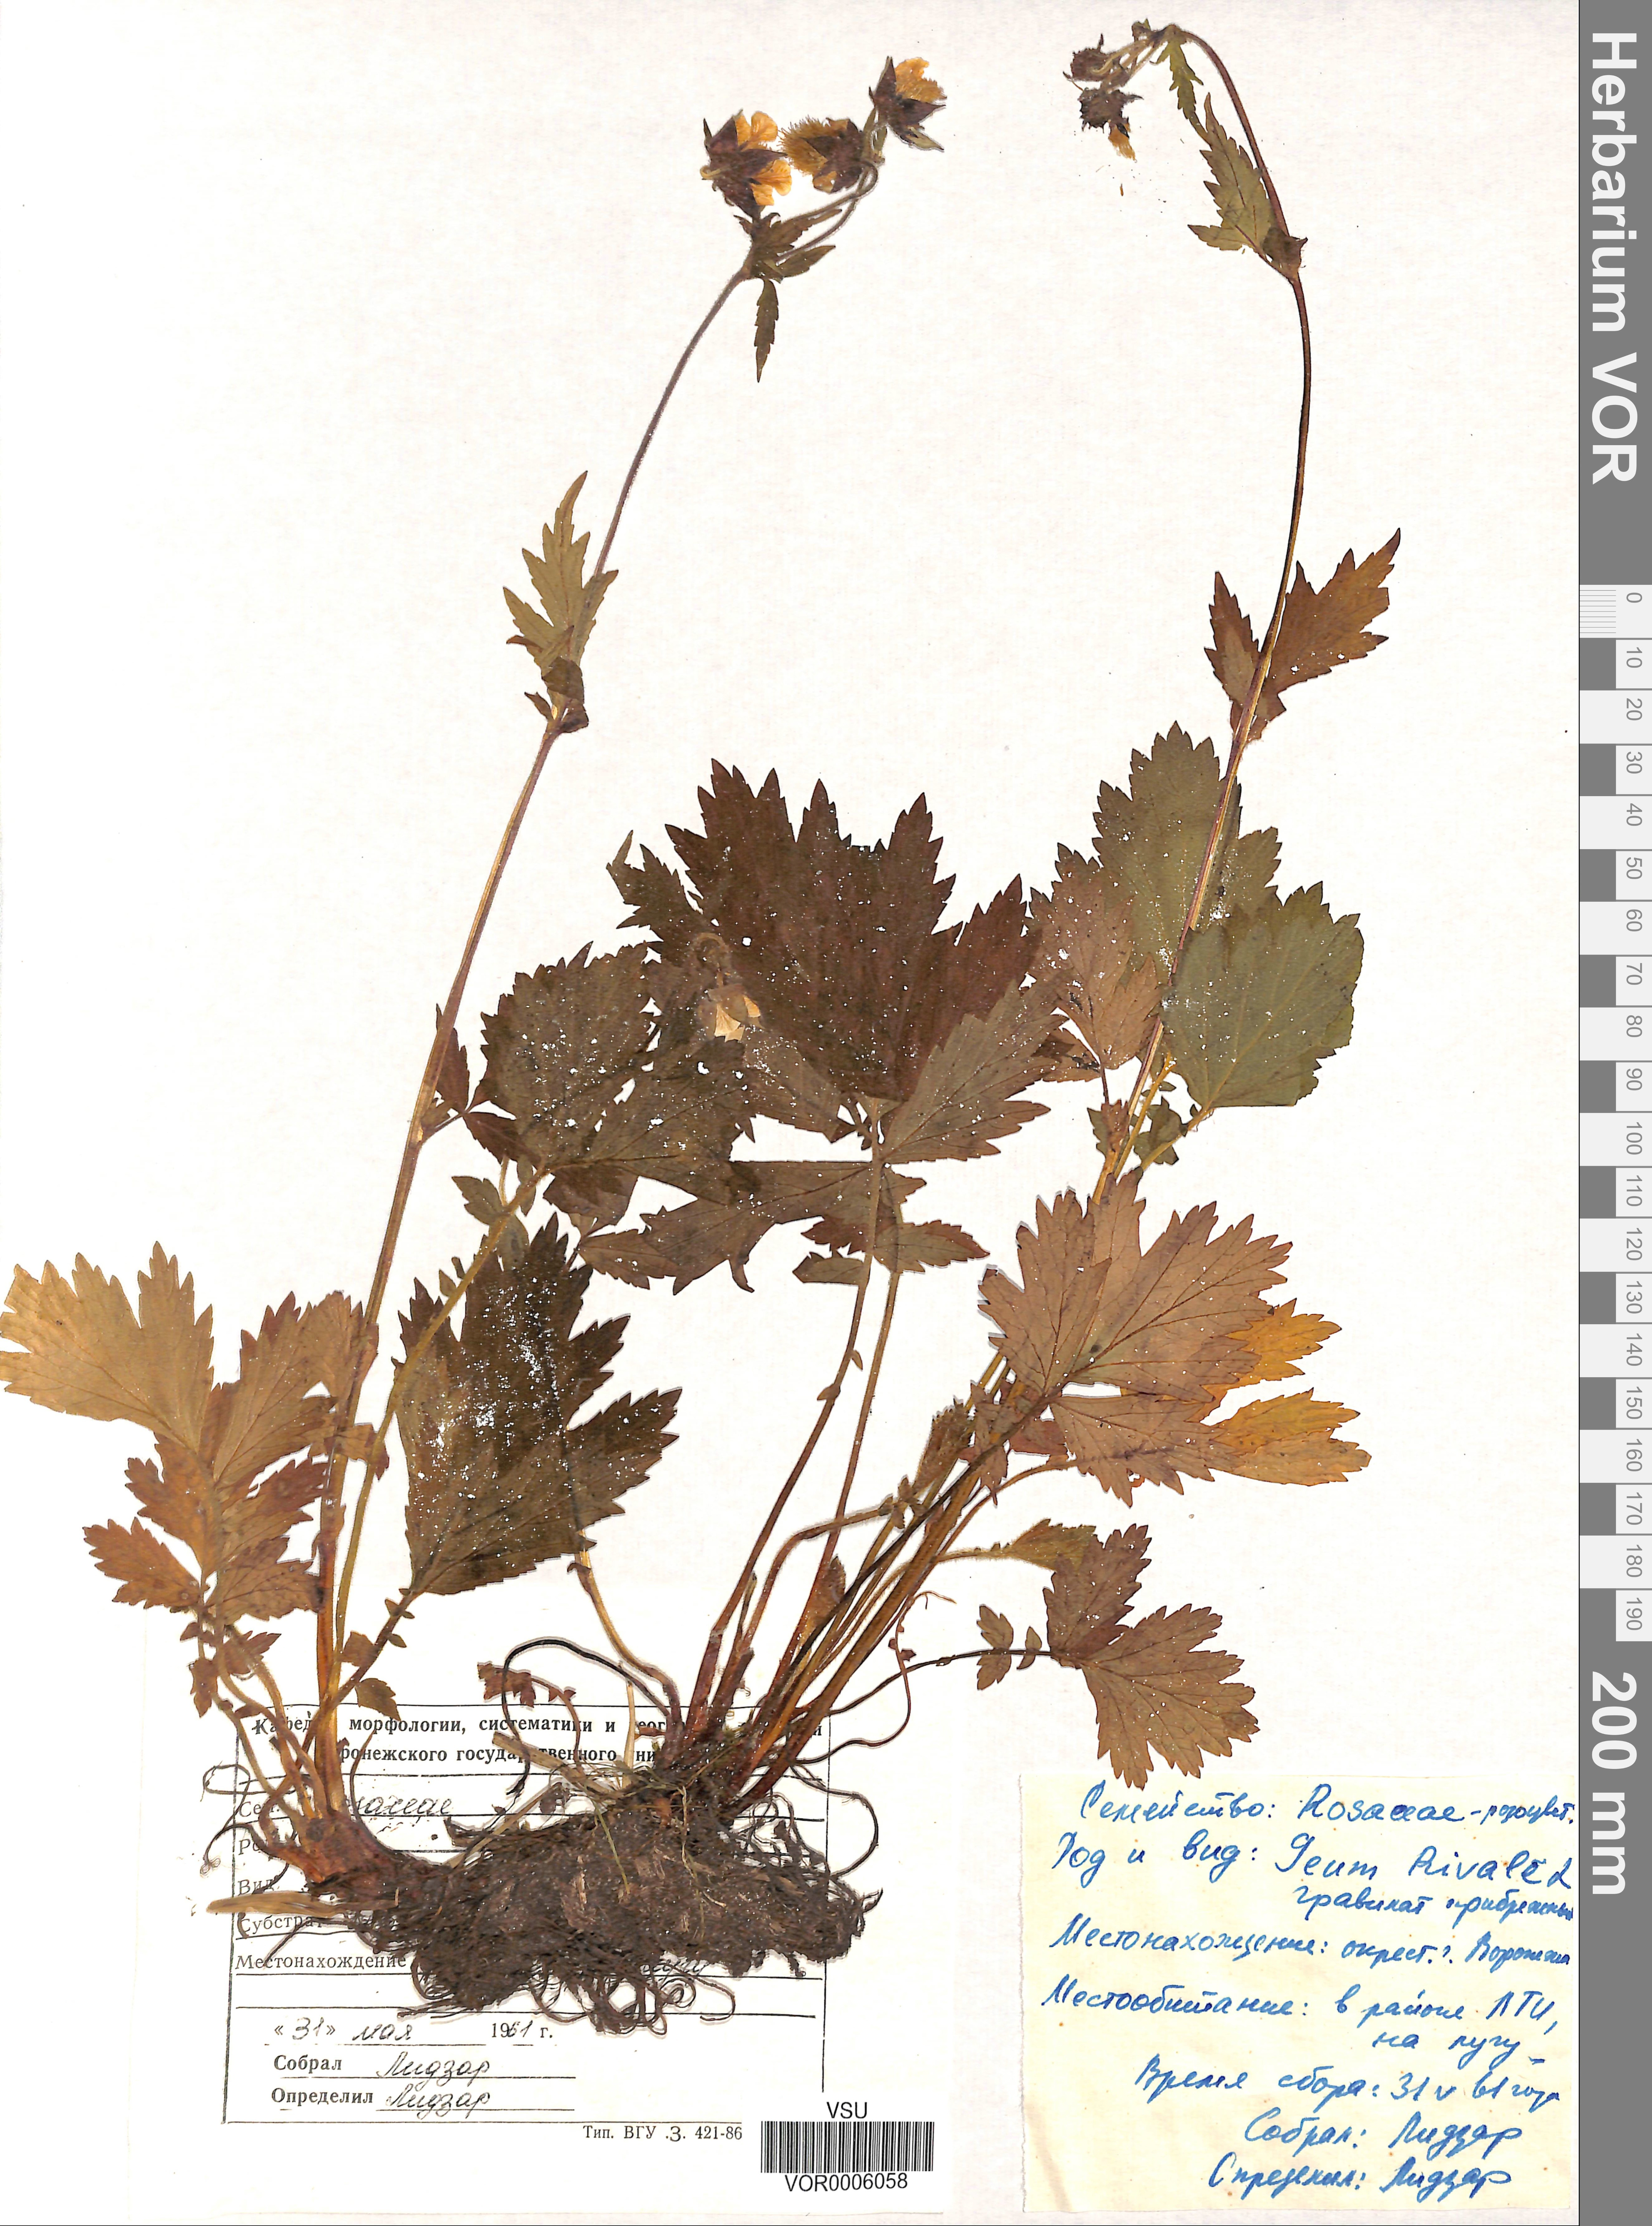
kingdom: Plantae
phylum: Tracheophyta
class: Magnoliopsida
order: Rosales
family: Rosaceae
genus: Geum
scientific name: Geum rivale
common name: Water avens
